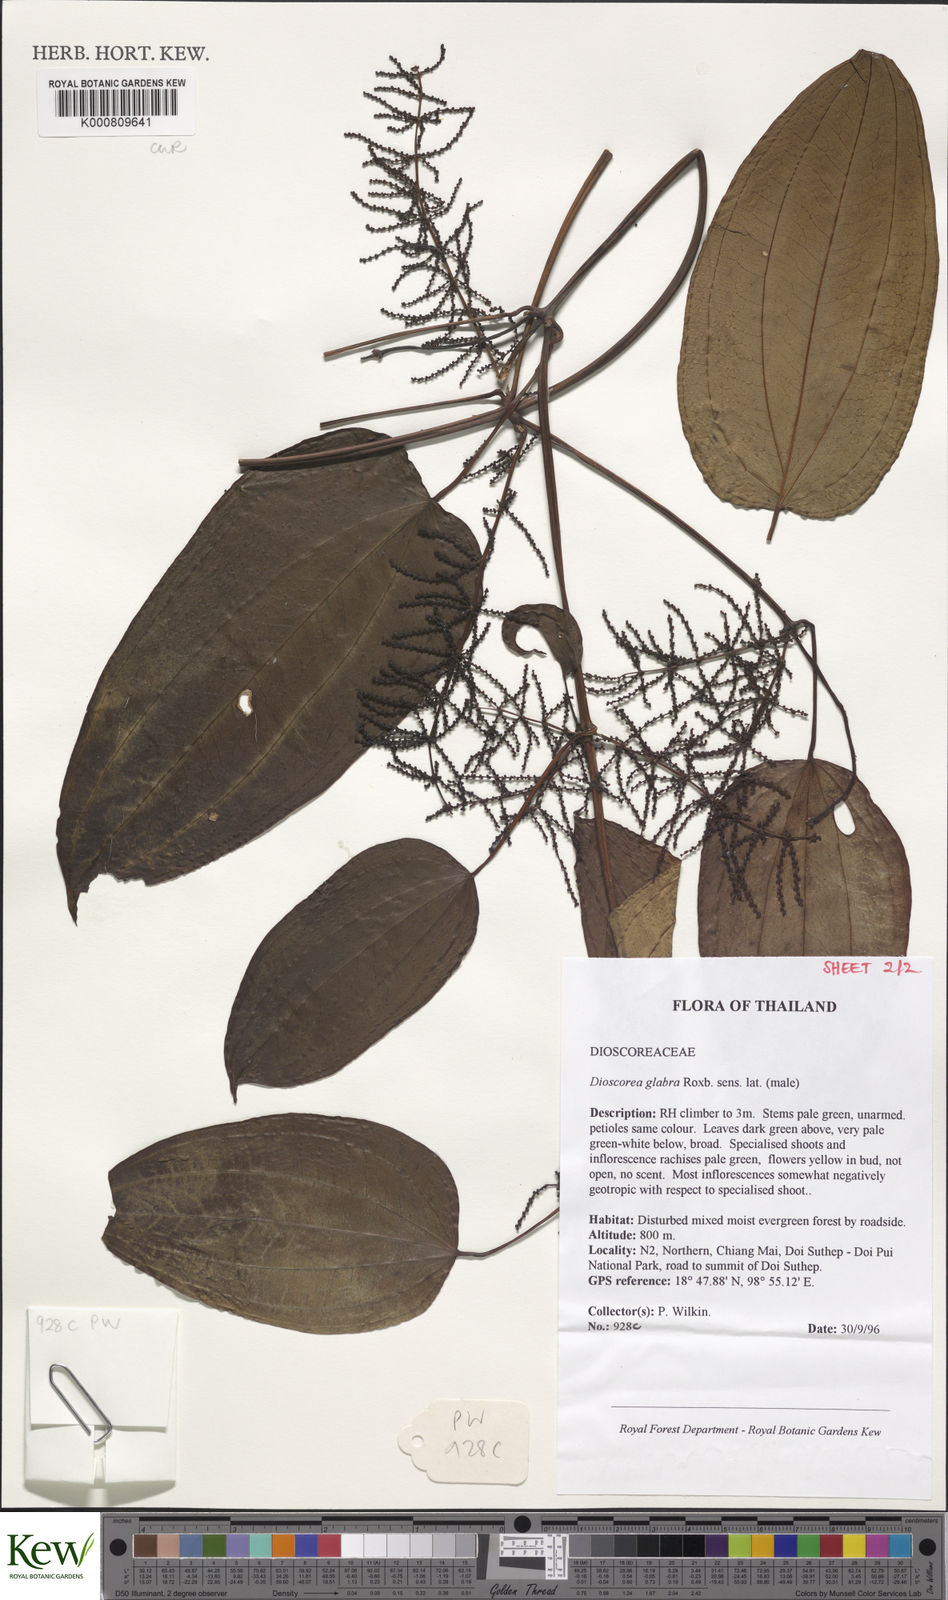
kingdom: Plantae
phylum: Tracheophyta
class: Liliopsida
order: Dioscoreales
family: Dioscoreaceae
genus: Dioscorea
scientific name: Dioscorea glabra
